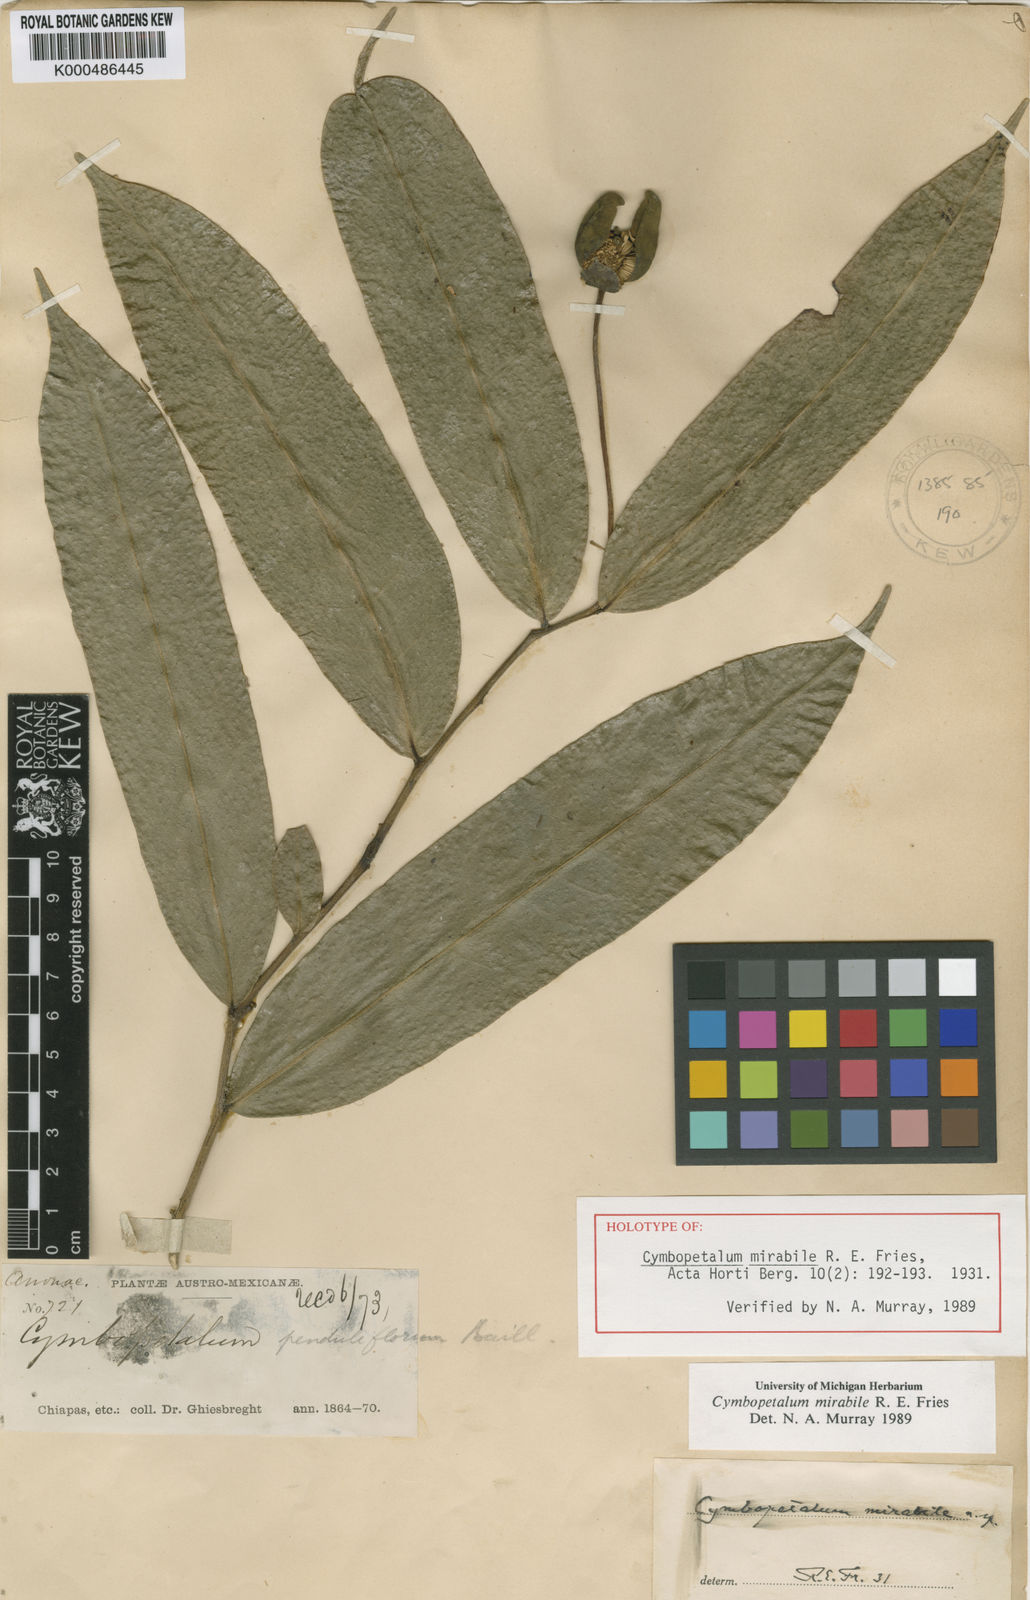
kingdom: Plantae
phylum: Tracheophyta
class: Magnoliopsida
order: Magnoliales
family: Annonaceae
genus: Cymbopetalum
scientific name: Cymbopetalum mirabile
